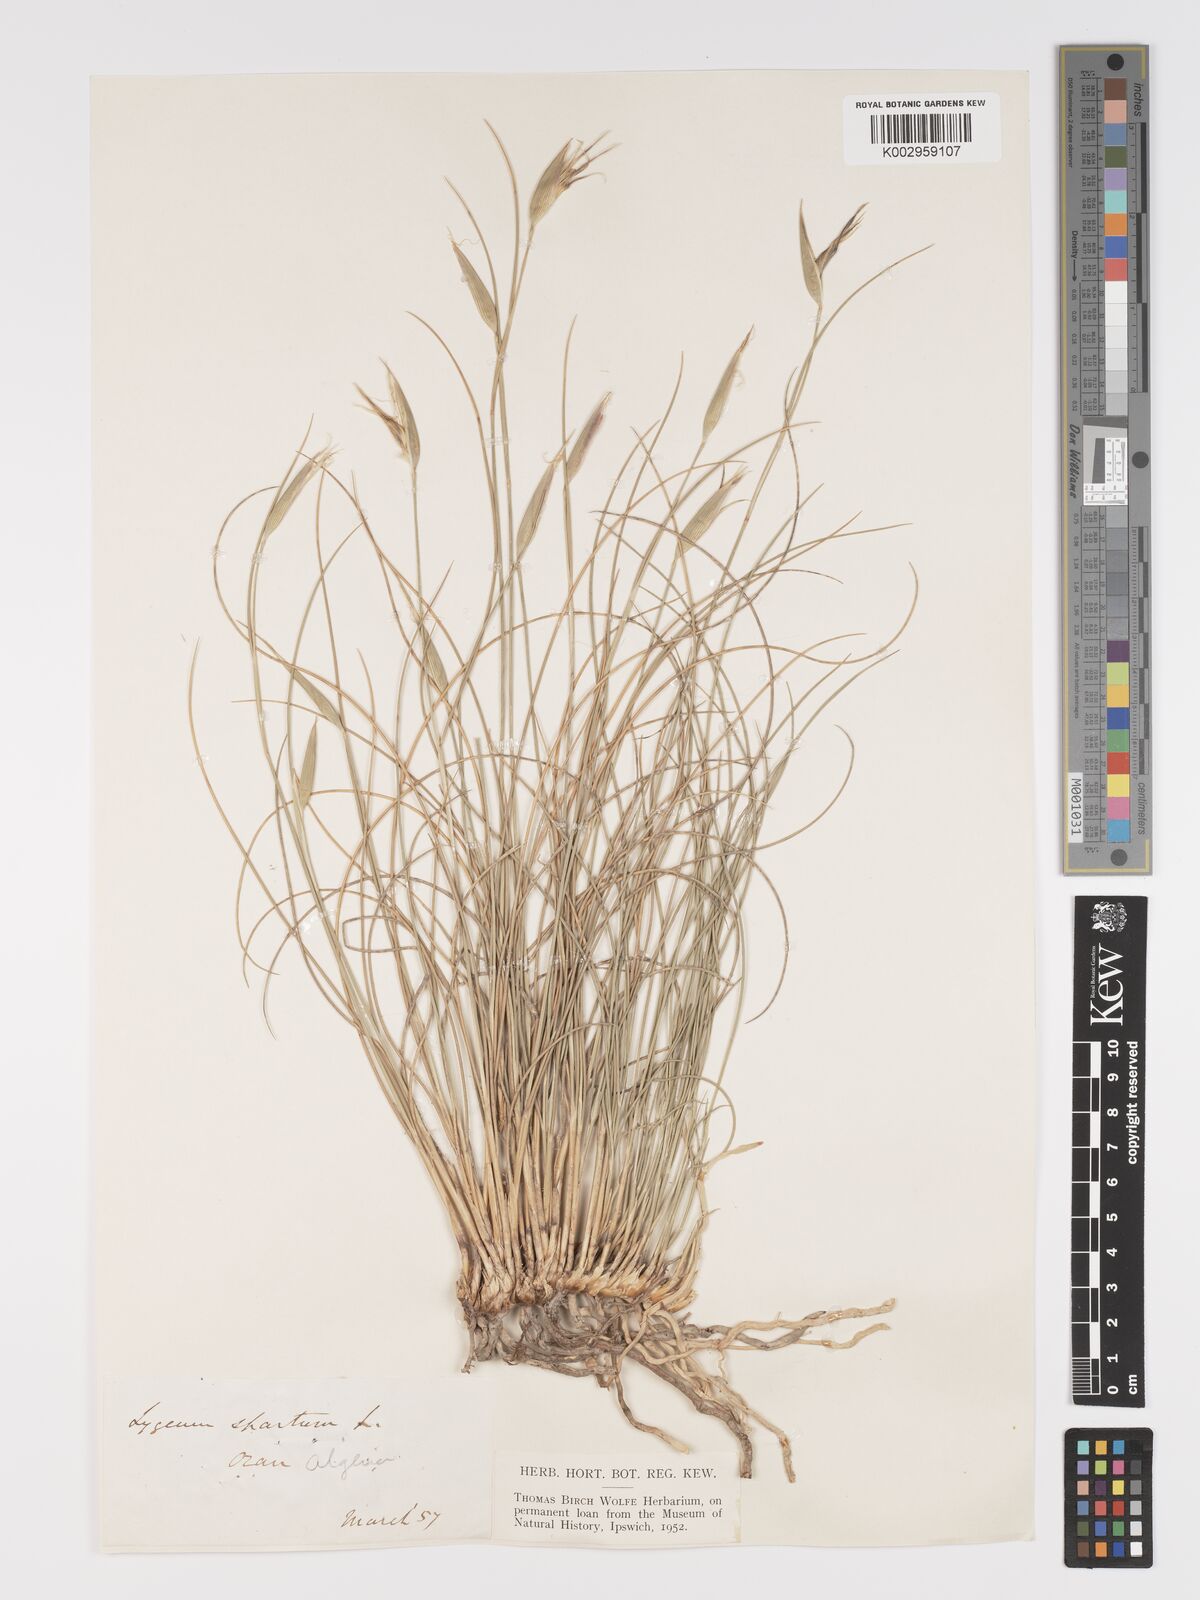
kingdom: Plantae
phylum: Tracheophyta
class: Liliopsida
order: Poales
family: Poaceae
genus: Lygeum
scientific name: Lygeum spartum
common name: Albardine
